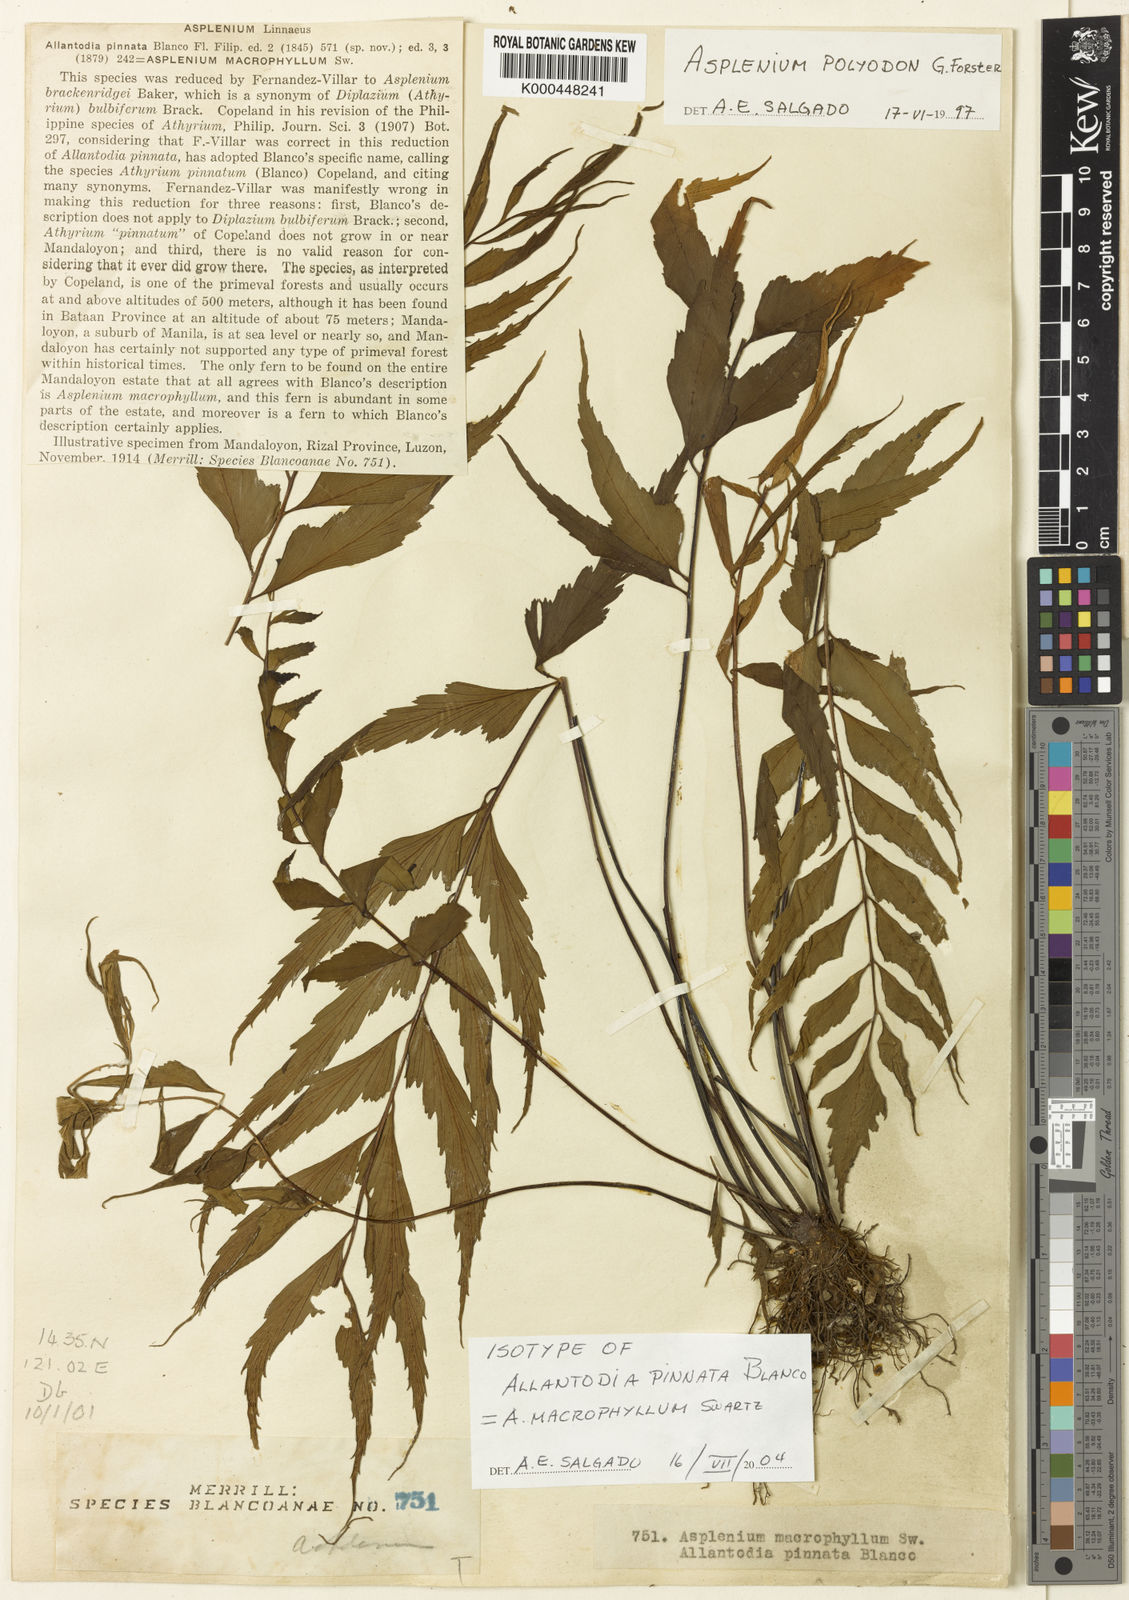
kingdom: Plantae
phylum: Tracheophyta
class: Polypodiopsida
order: Polypodiales
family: Aspleniaceae
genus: Asplenium
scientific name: Asplenium macrophyllum
